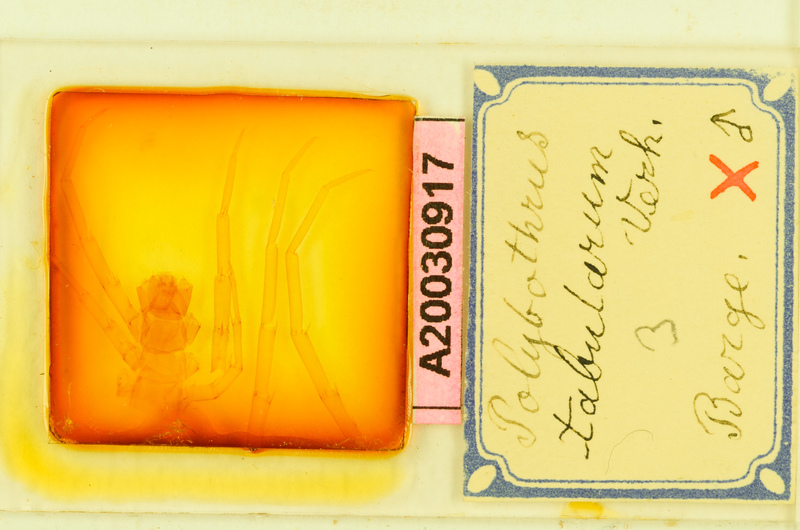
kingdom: Animalia
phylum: Arthropoda
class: Chilopoda
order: Lithobiomorpha
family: Lithobiidae
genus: Polybothrus
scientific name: Polybothrus tabularum
